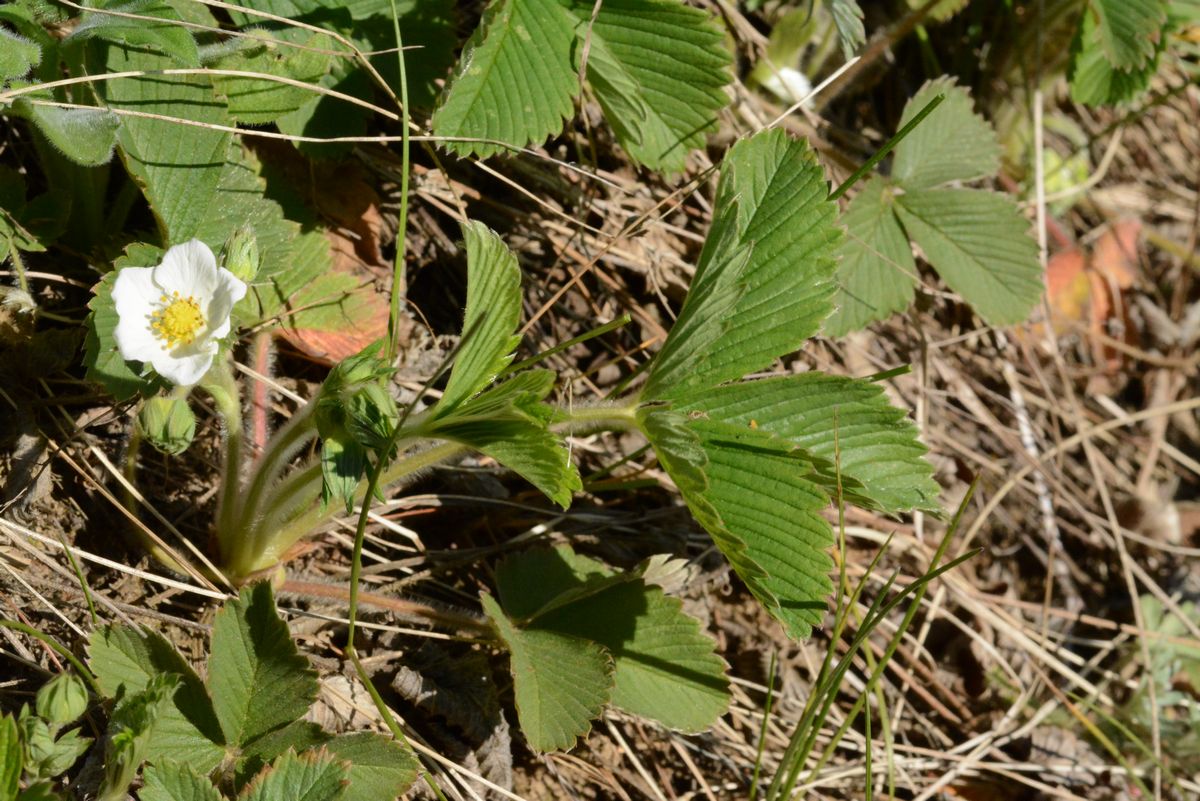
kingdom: Plantae
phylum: Tracheophyta
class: Magnoliopsida
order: Rosales
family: Rosaceae
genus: Fragaria
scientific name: Fragaria
